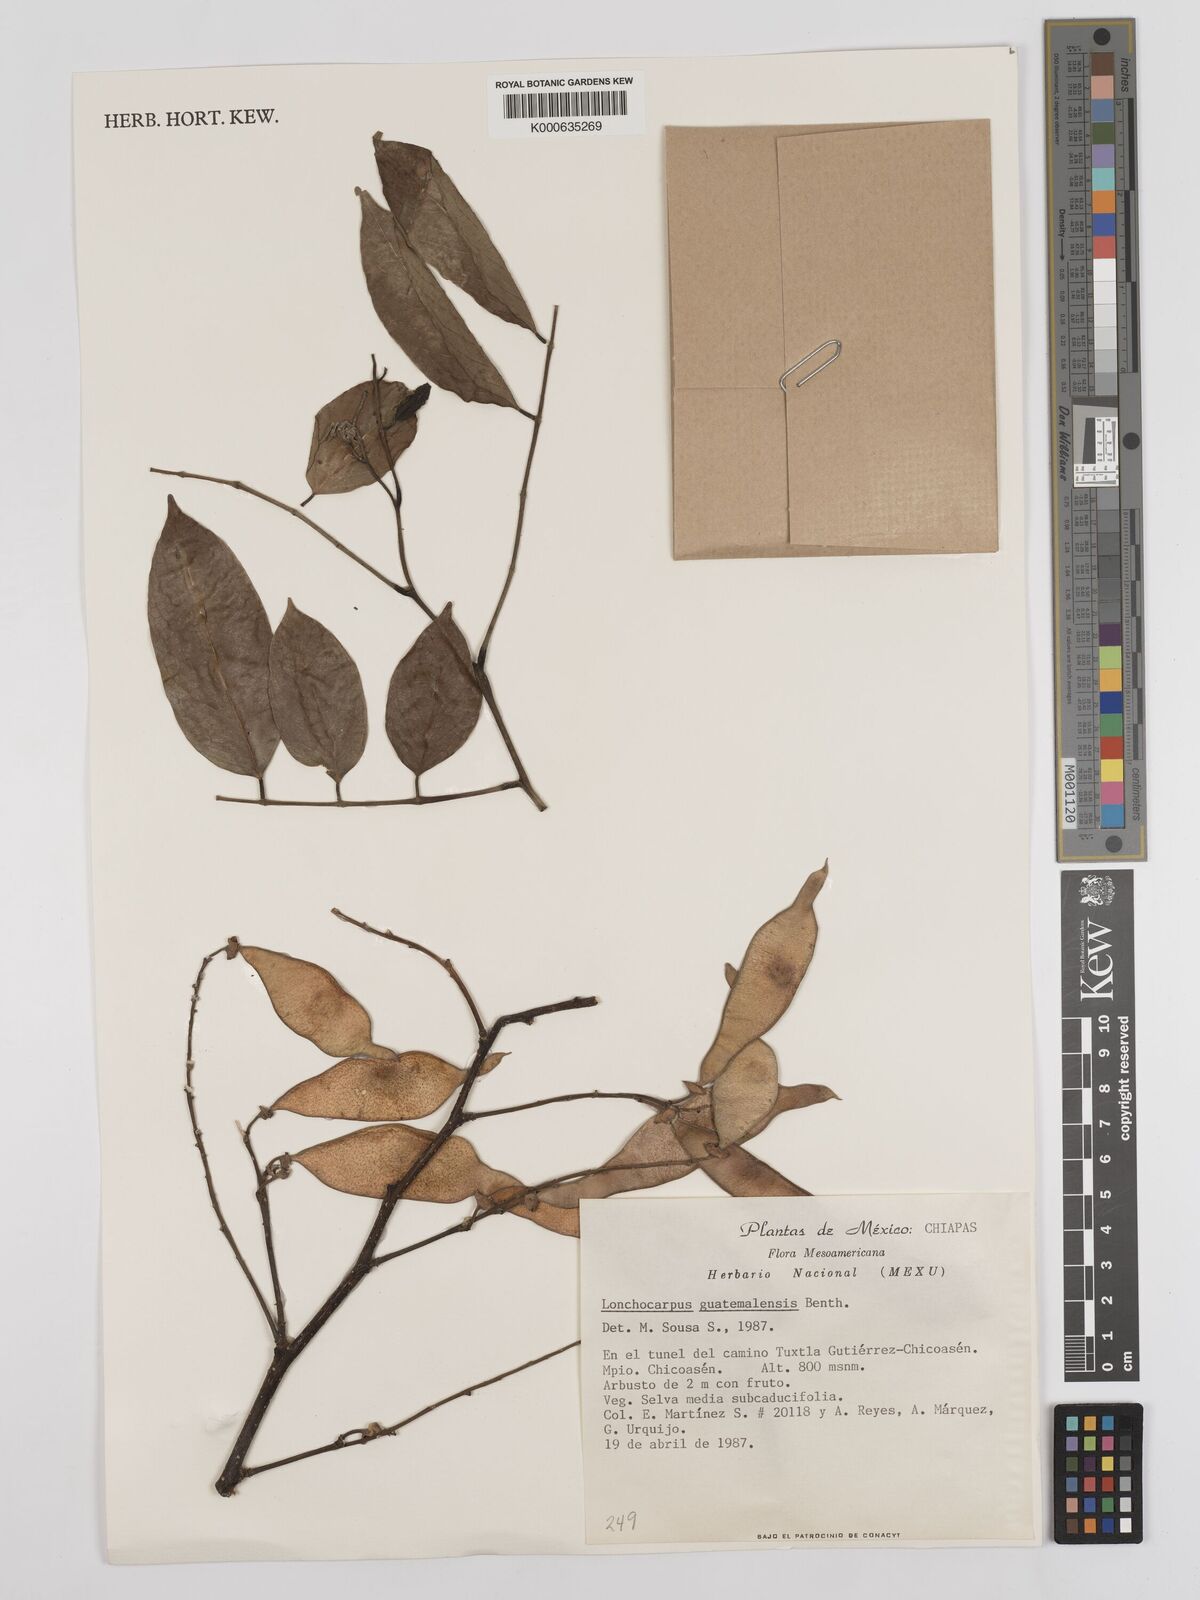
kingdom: Plantae
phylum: Tracheophyta
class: Magnoliopsida
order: Fabales
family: Fabaceae
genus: Lonchocarpus
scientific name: Lonchocarpus guatemalensis
